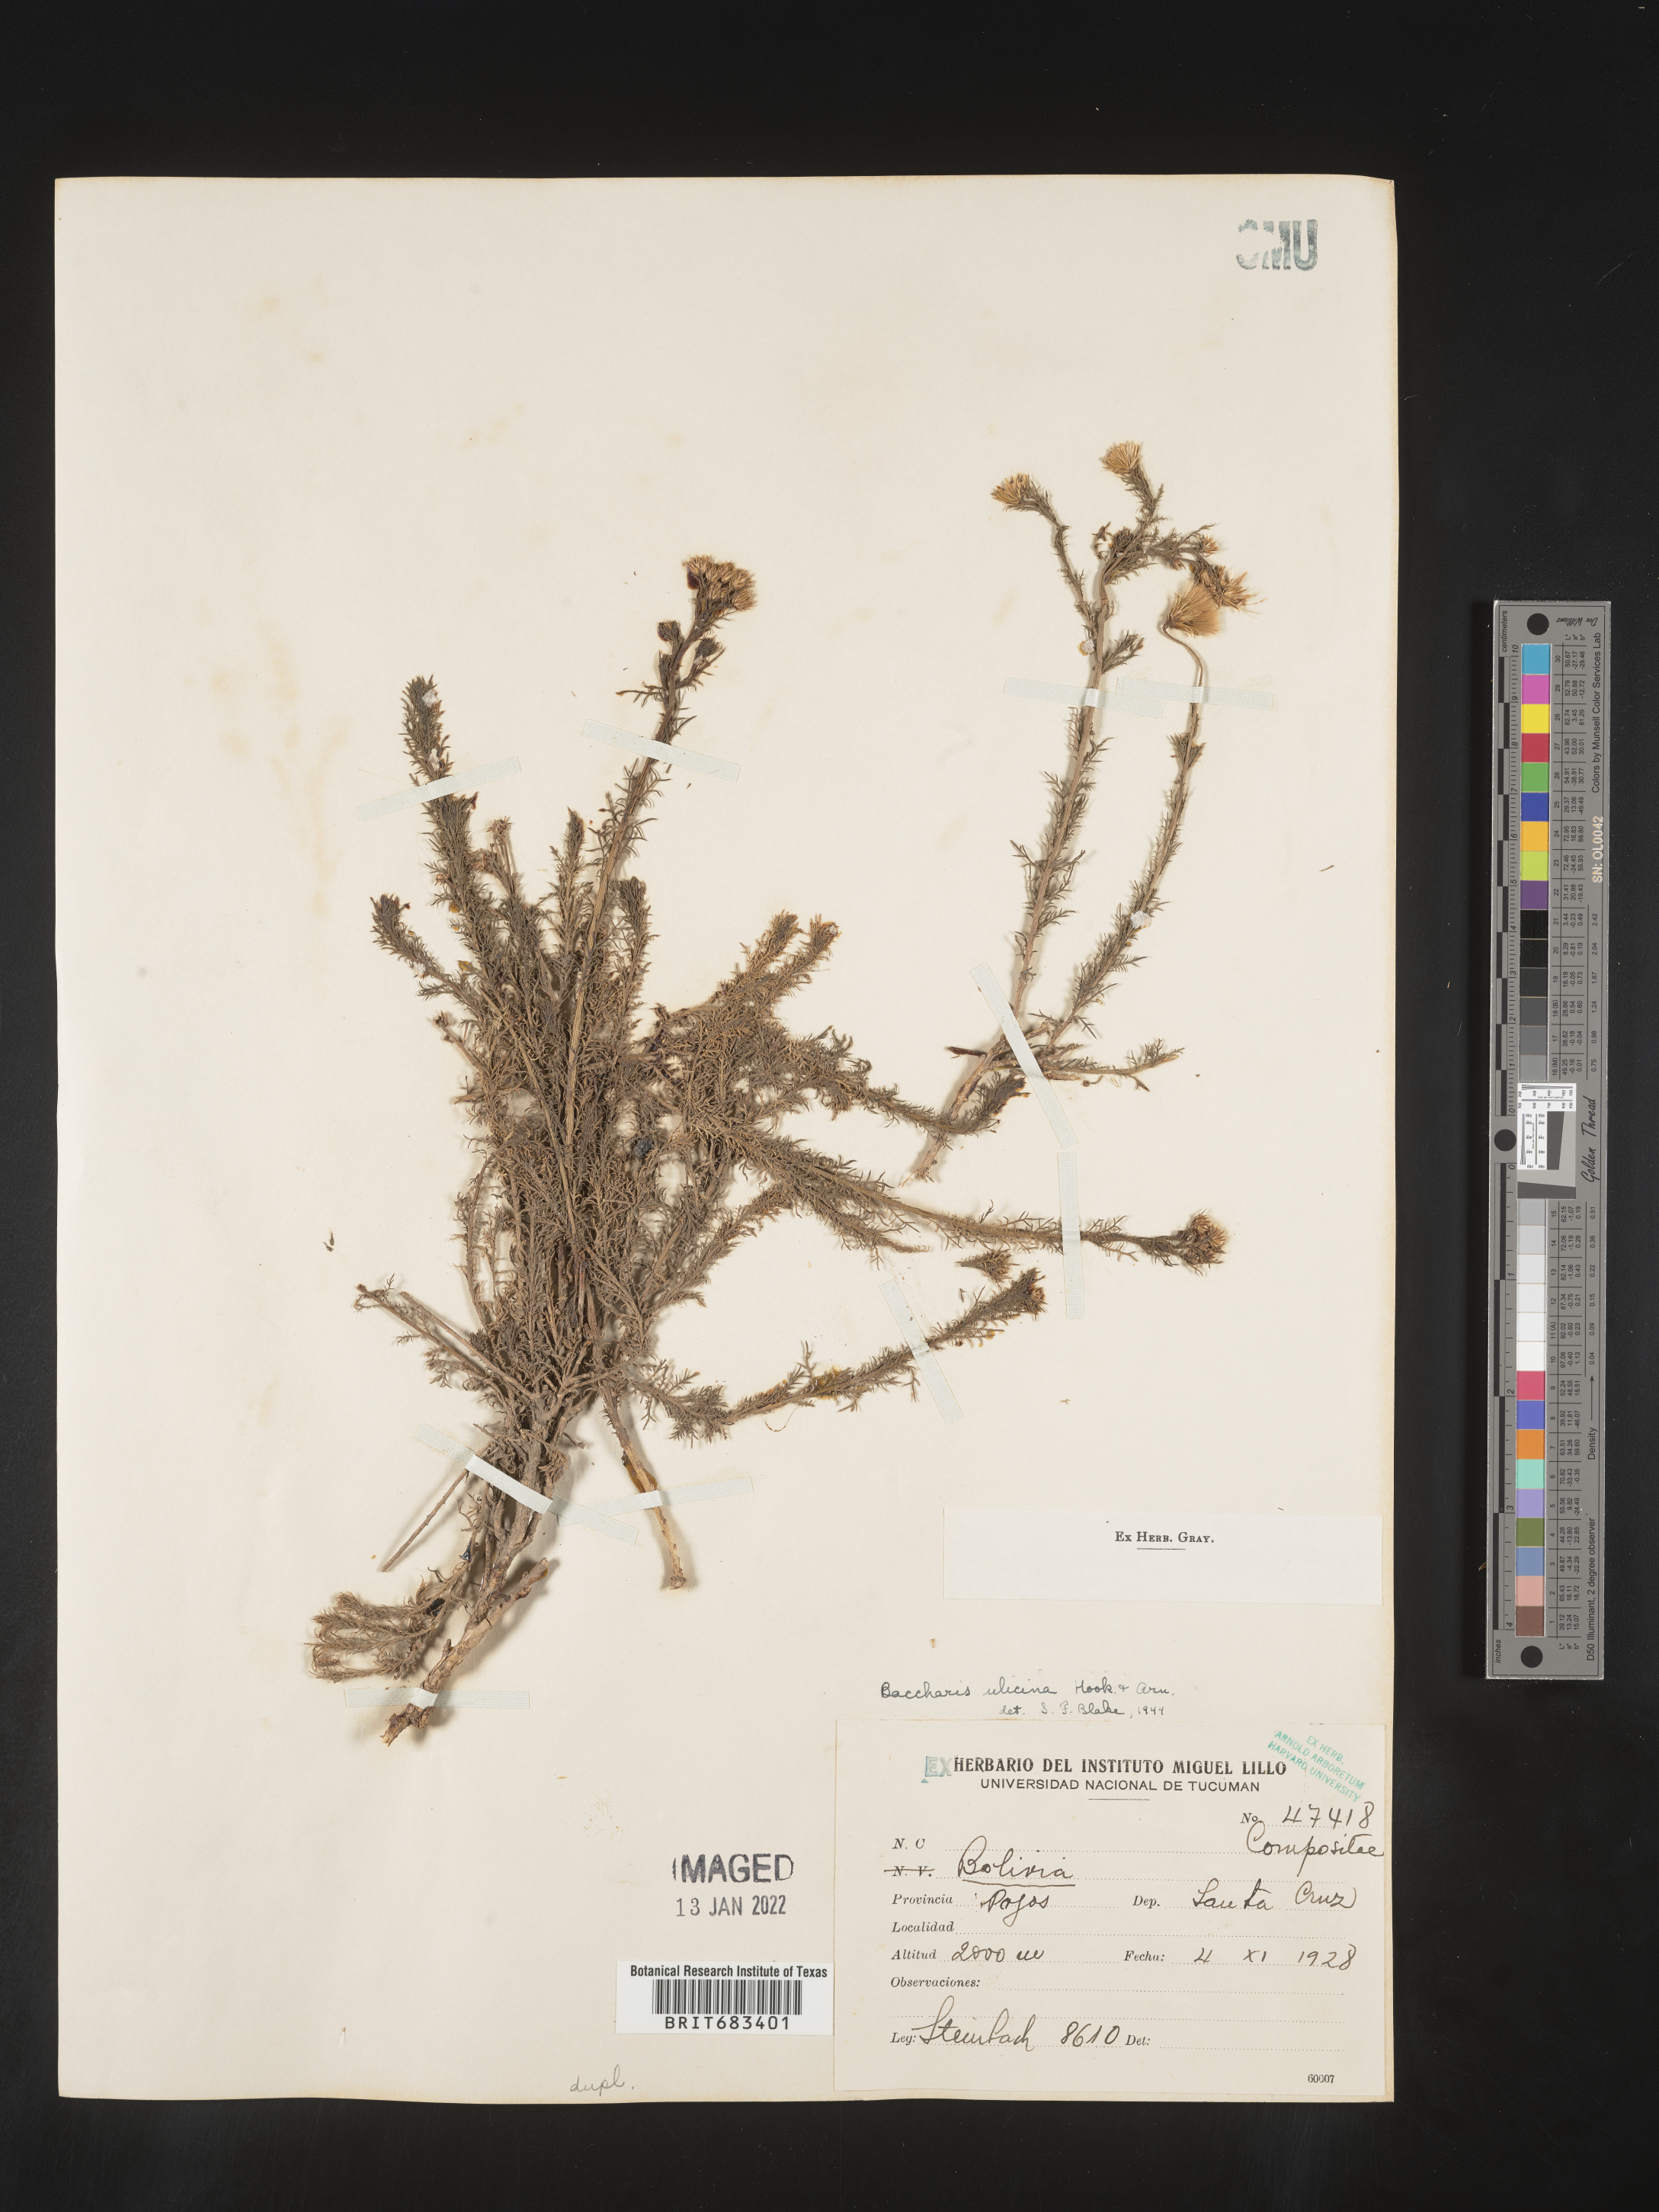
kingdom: Plantae
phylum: Tracheophyta
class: Magnoliopsida
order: Asterales
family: Asteraceae
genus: Baccharis
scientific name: Baccharis
